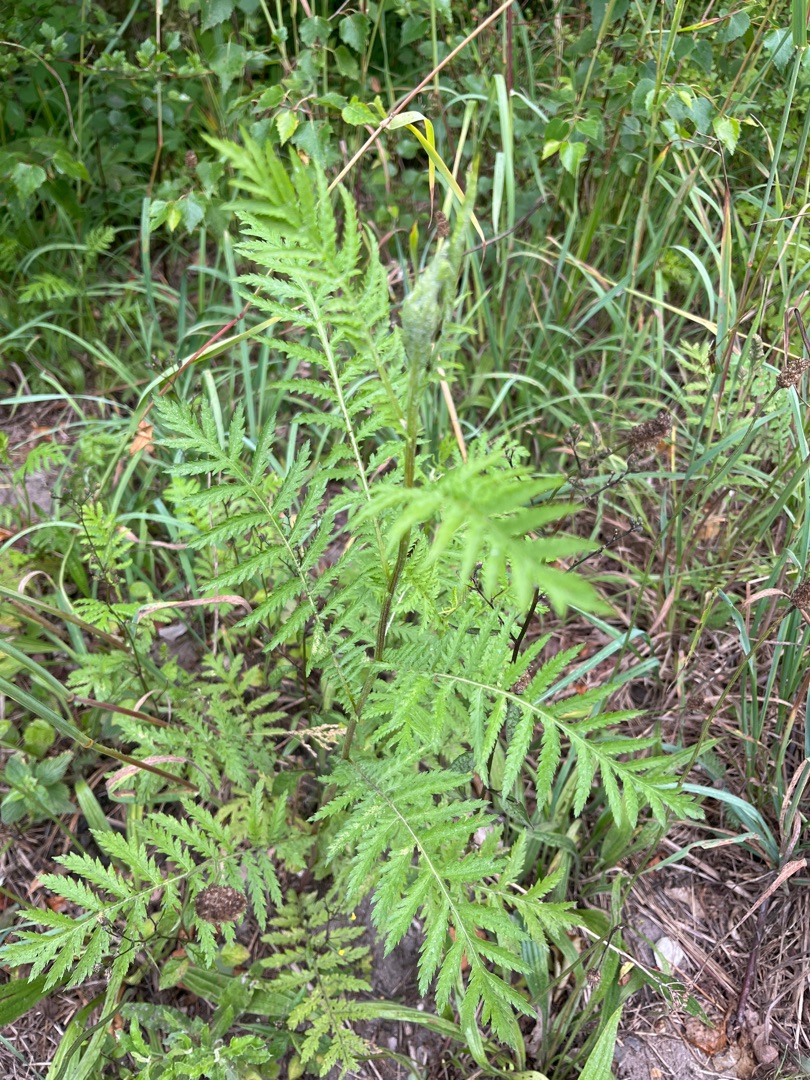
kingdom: Plantae
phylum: Tracheophyta
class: Magnoliopsida
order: Asterales
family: Asteraceae
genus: Tanacetum
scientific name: Tanacetum vulgare
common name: Rejnfan
